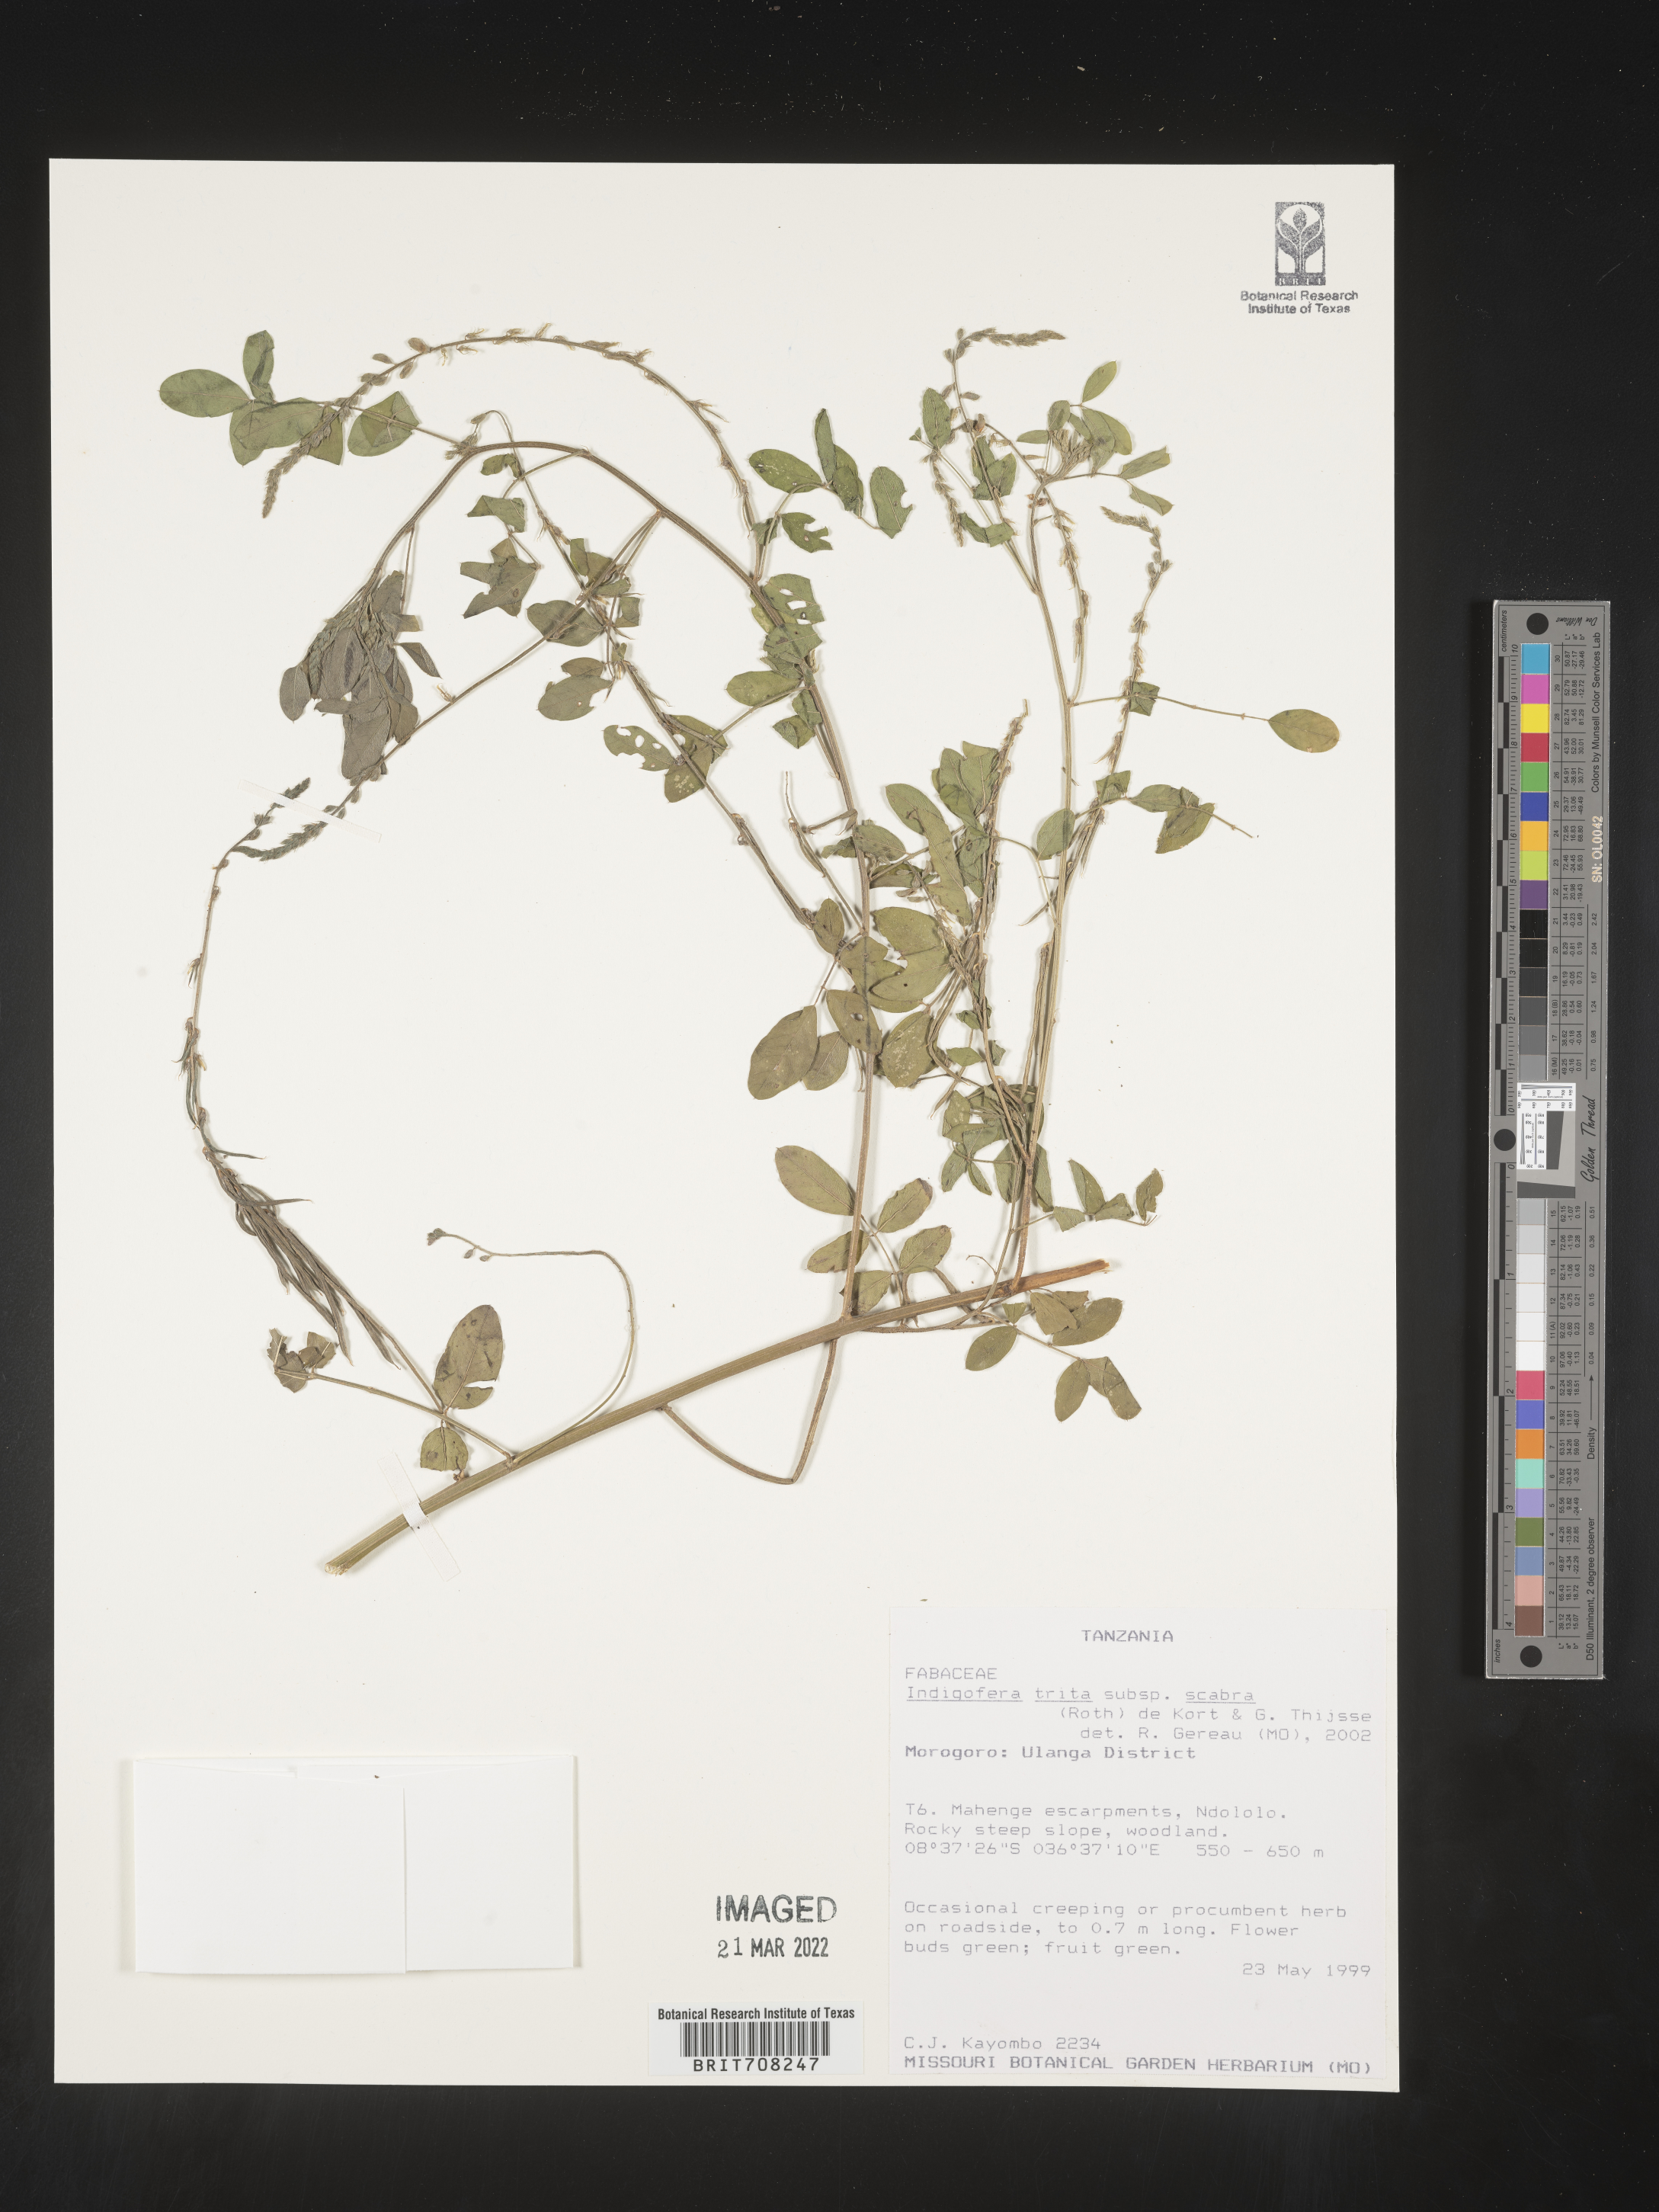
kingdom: Plantae
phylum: Tracheophyta
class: Magnoliopsida
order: Fabales
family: Fabaceae
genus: Indigofera
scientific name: Indigofera
